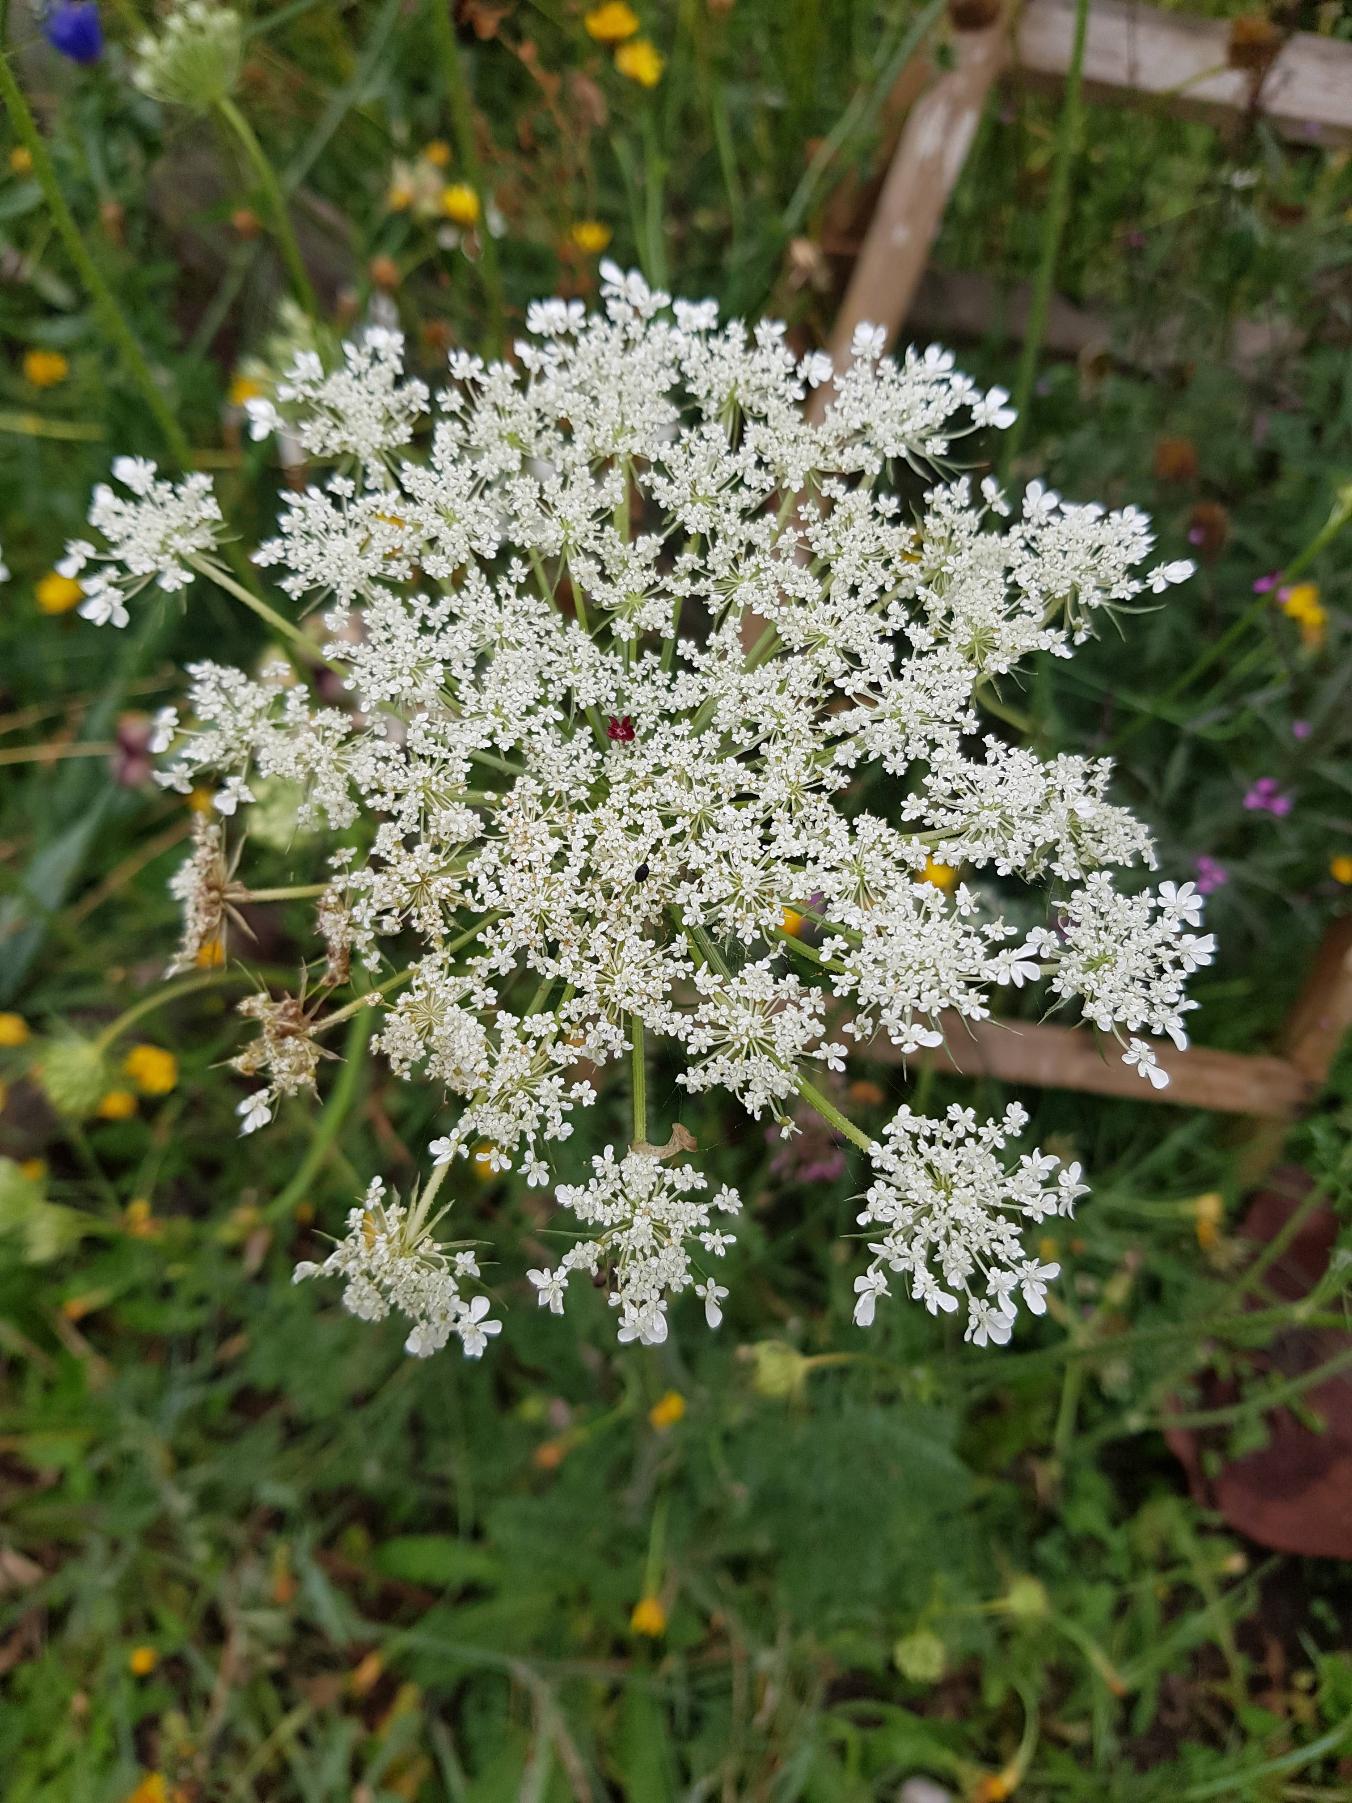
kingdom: Plantae
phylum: Tracheophyta
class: Magnoliopsida
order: Apiales
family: Apiaceae
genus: Daucus
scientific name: Daucus carota
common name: Vild gulerod
